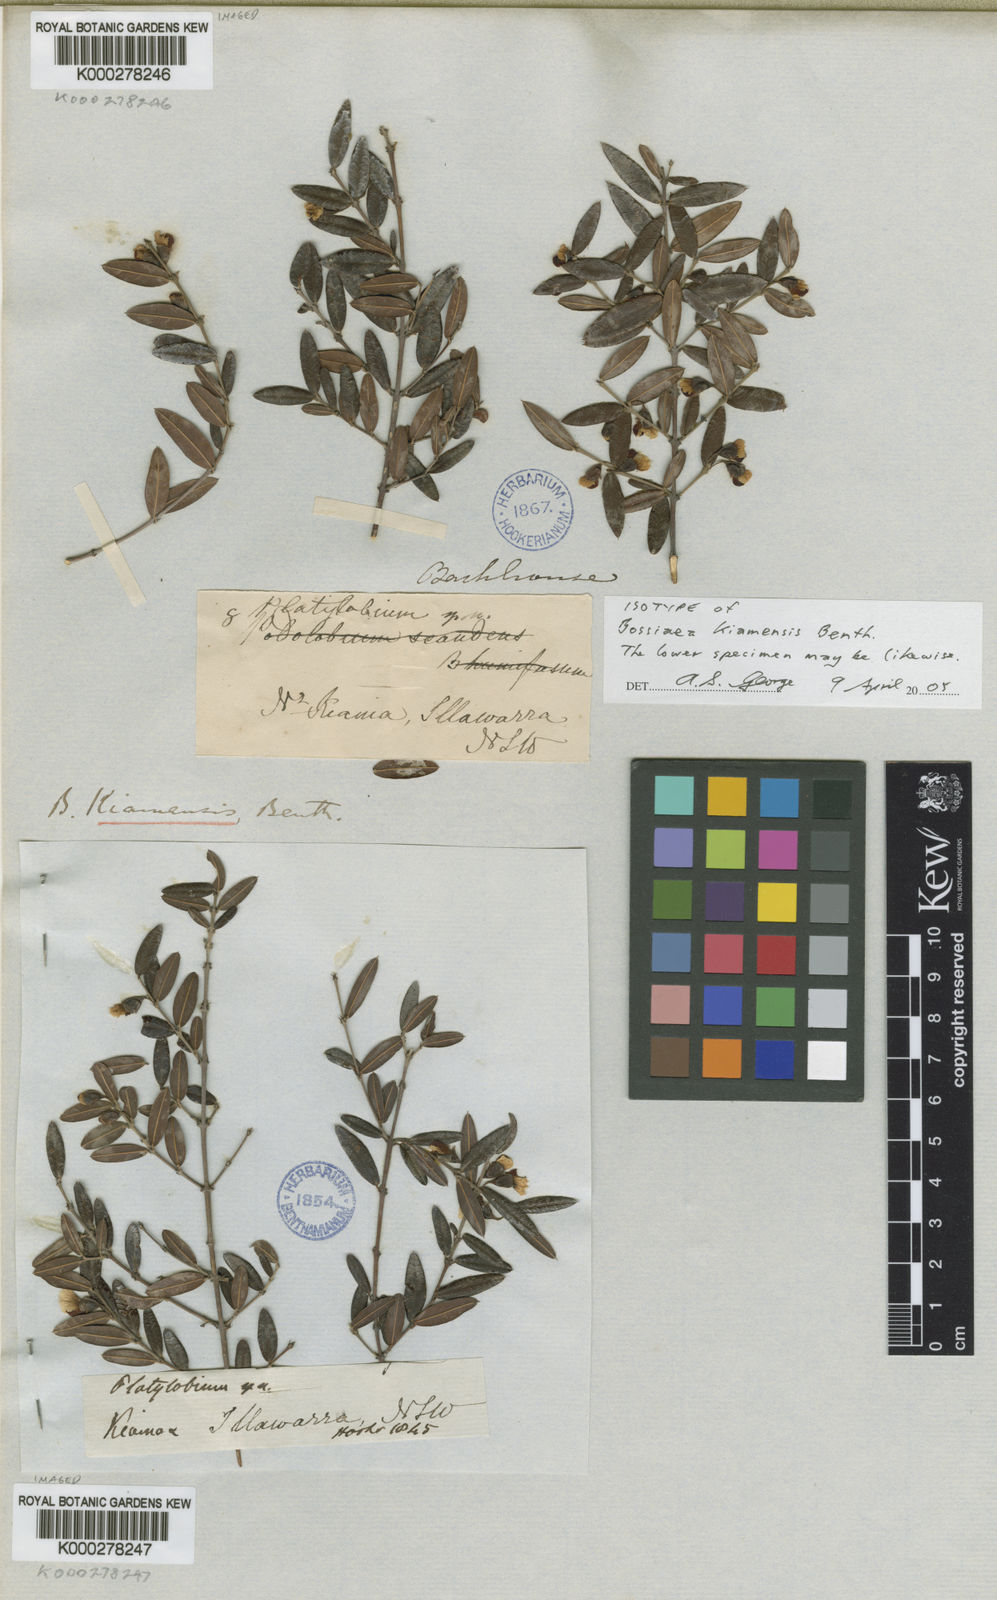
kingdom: Plantae
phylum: Tracheophyta
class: Magnoliopsida
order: Fabales
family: Fabaceae
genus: Bossiaea
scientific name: Bossiaea kiamensis
